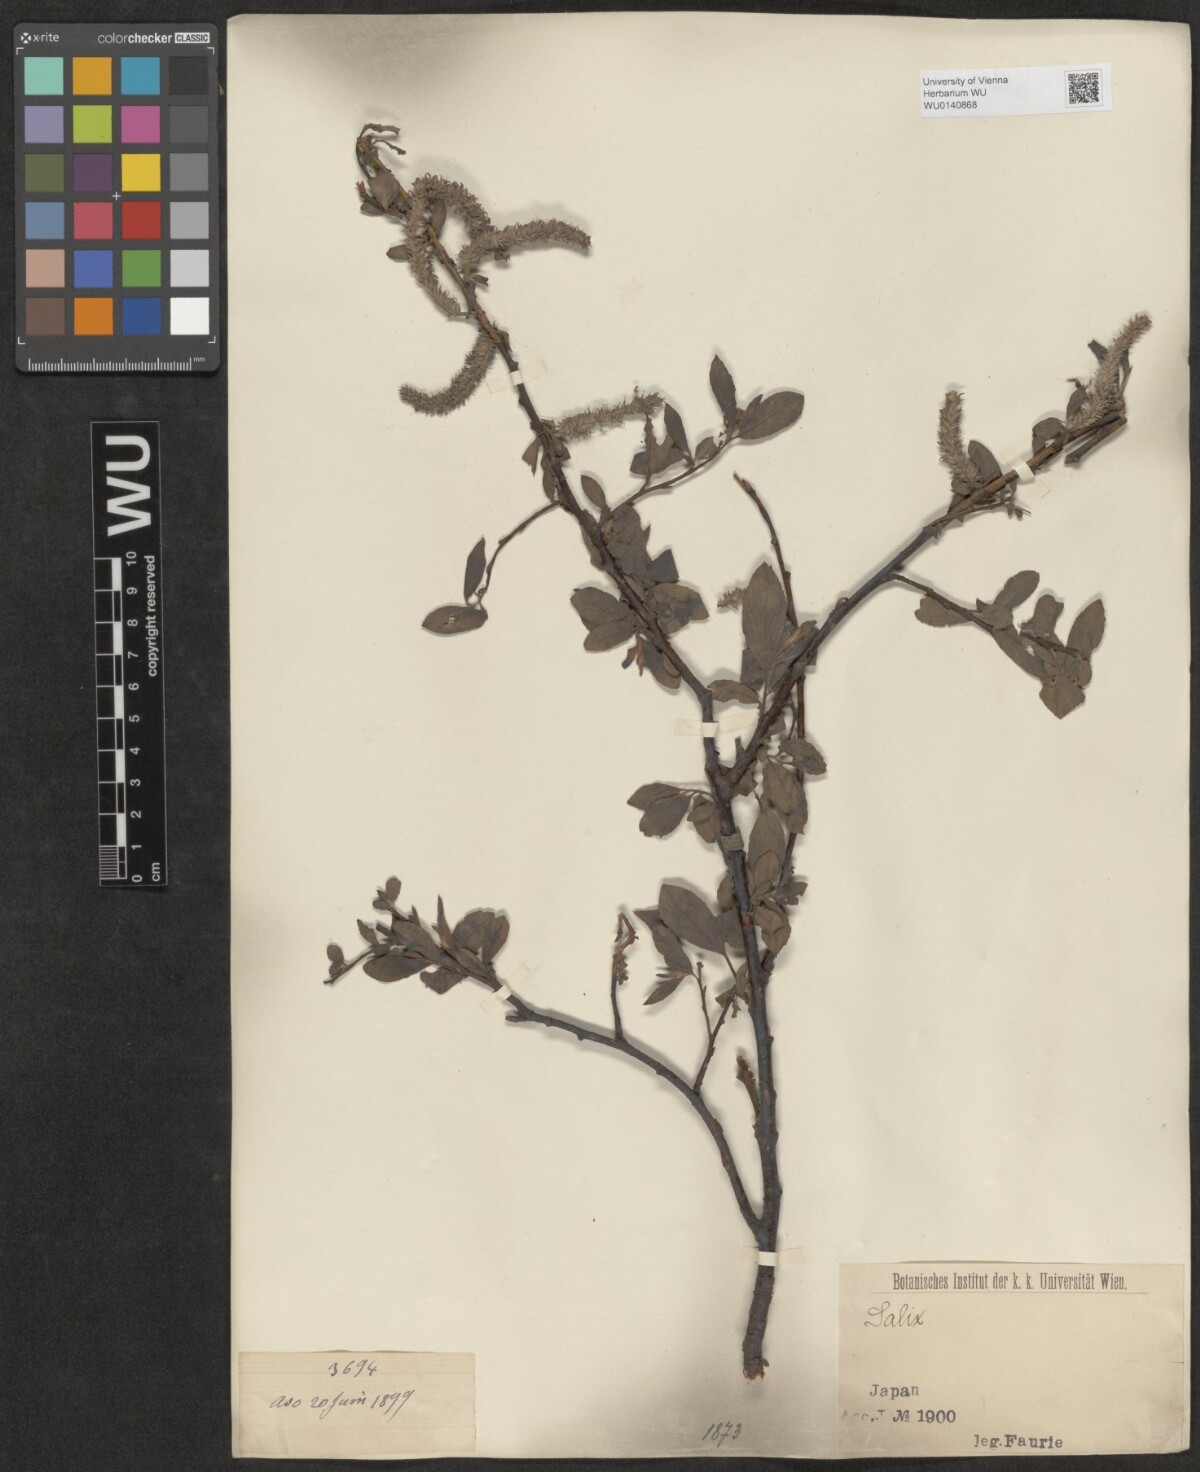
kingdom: Plantae
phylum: Tracheophyta
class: Magnoliopsida
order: Malpighiales
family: Salicaceae
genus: Salix
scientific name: Salix
